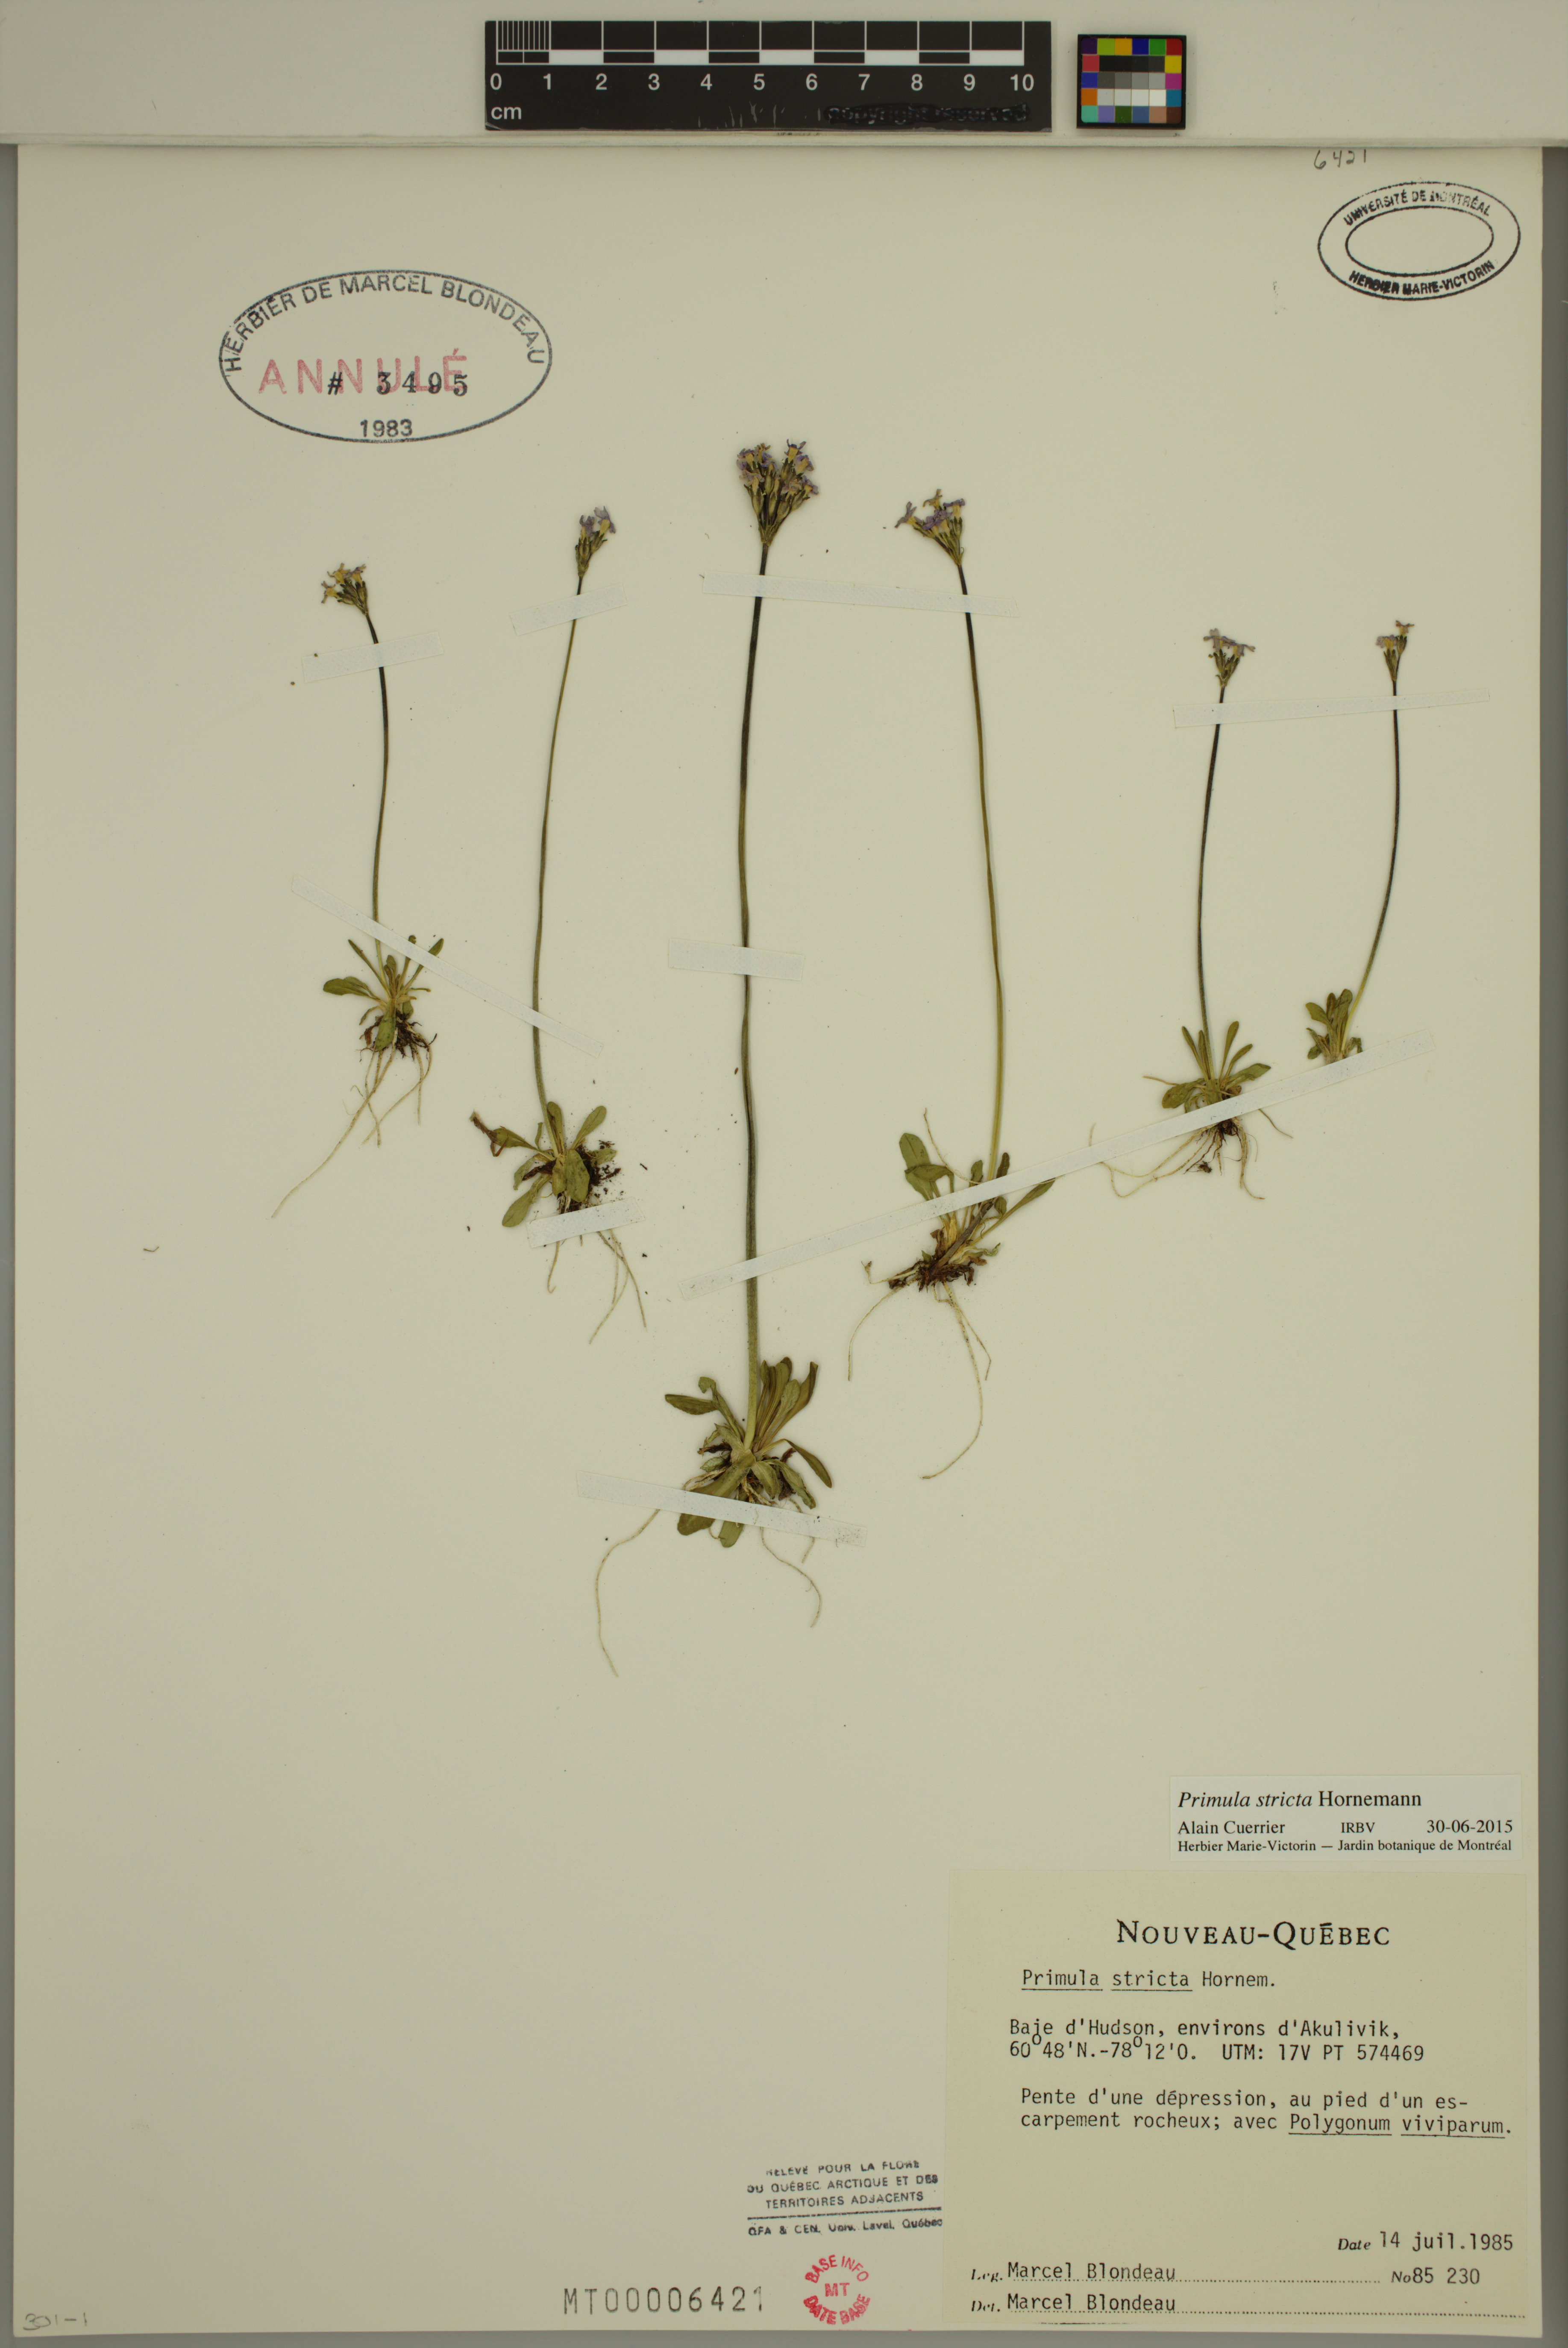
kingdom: Plantae
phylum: Tracheophyta
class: Magnoliopsida
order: Ericales
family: Primulaceae
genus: Primula
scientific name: Primula stricta
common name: Coastal primrose
